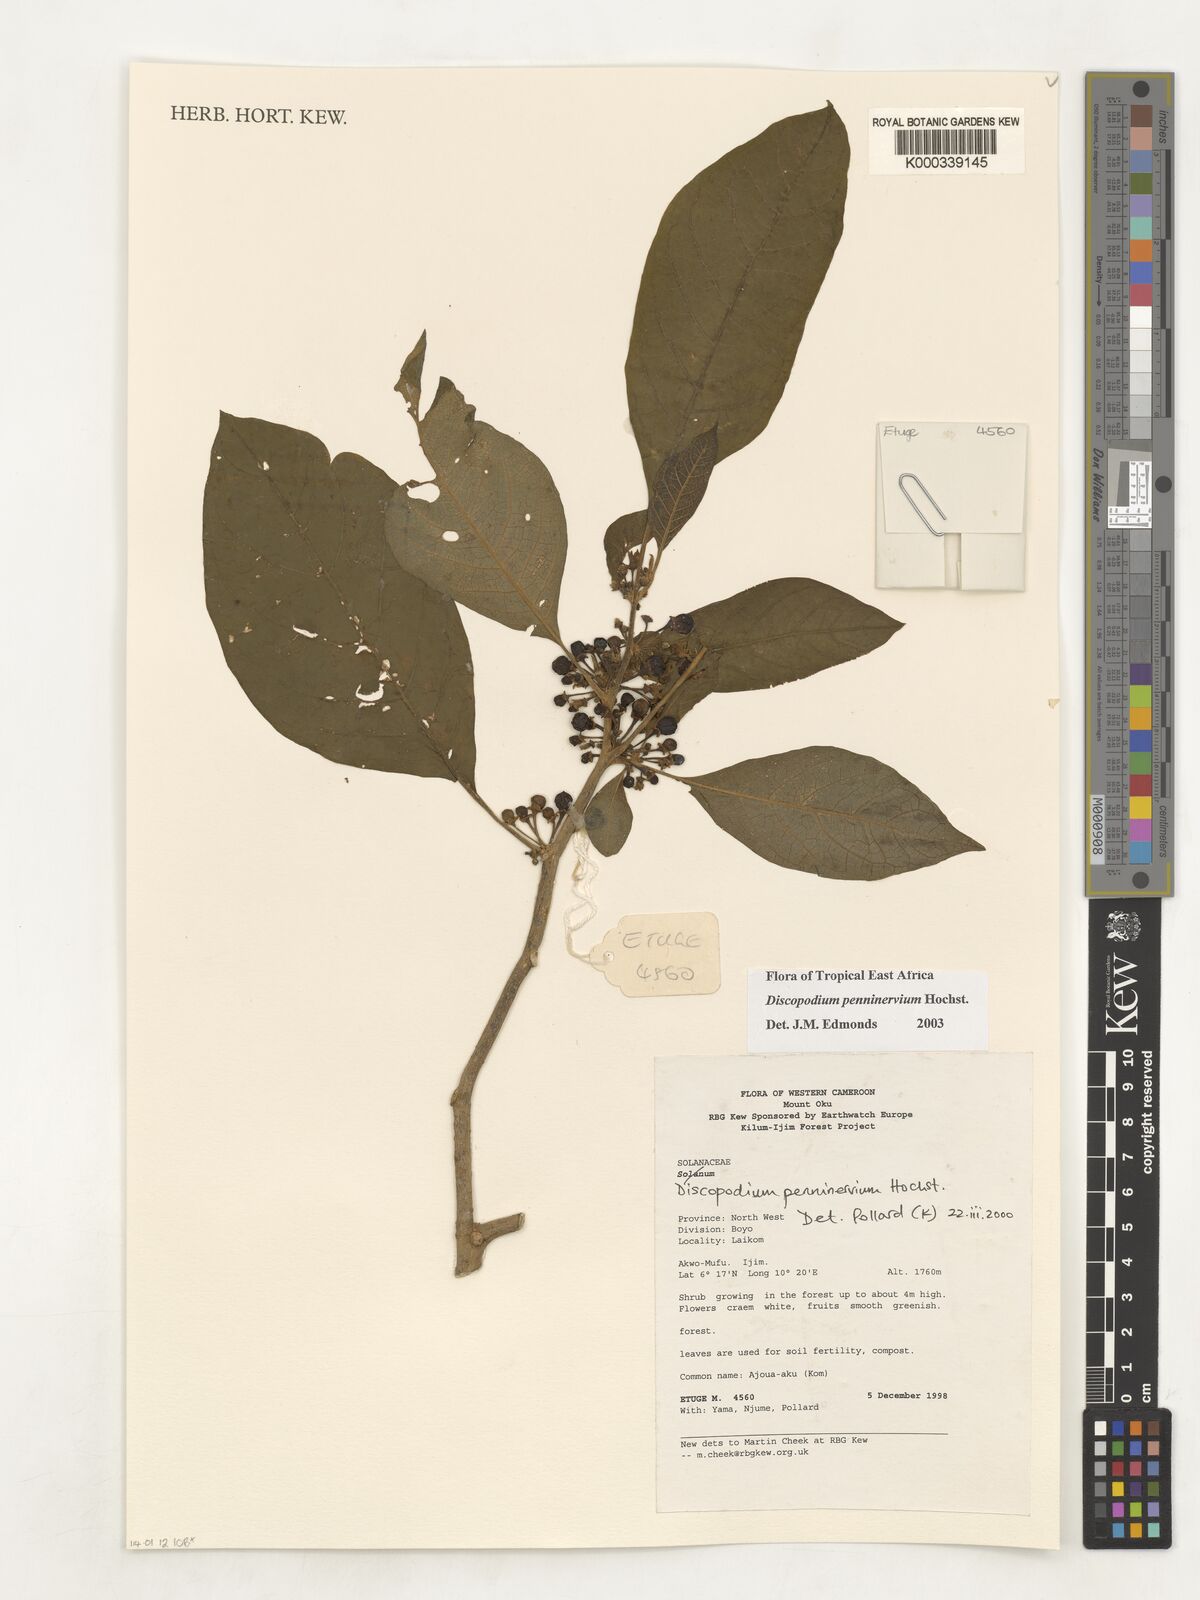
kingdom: Plantae
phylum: Tracheophyta
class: Magnoliopsida
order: Solanales
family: Solanaceae
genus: Discopodium
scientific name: Discopodium penninervium
